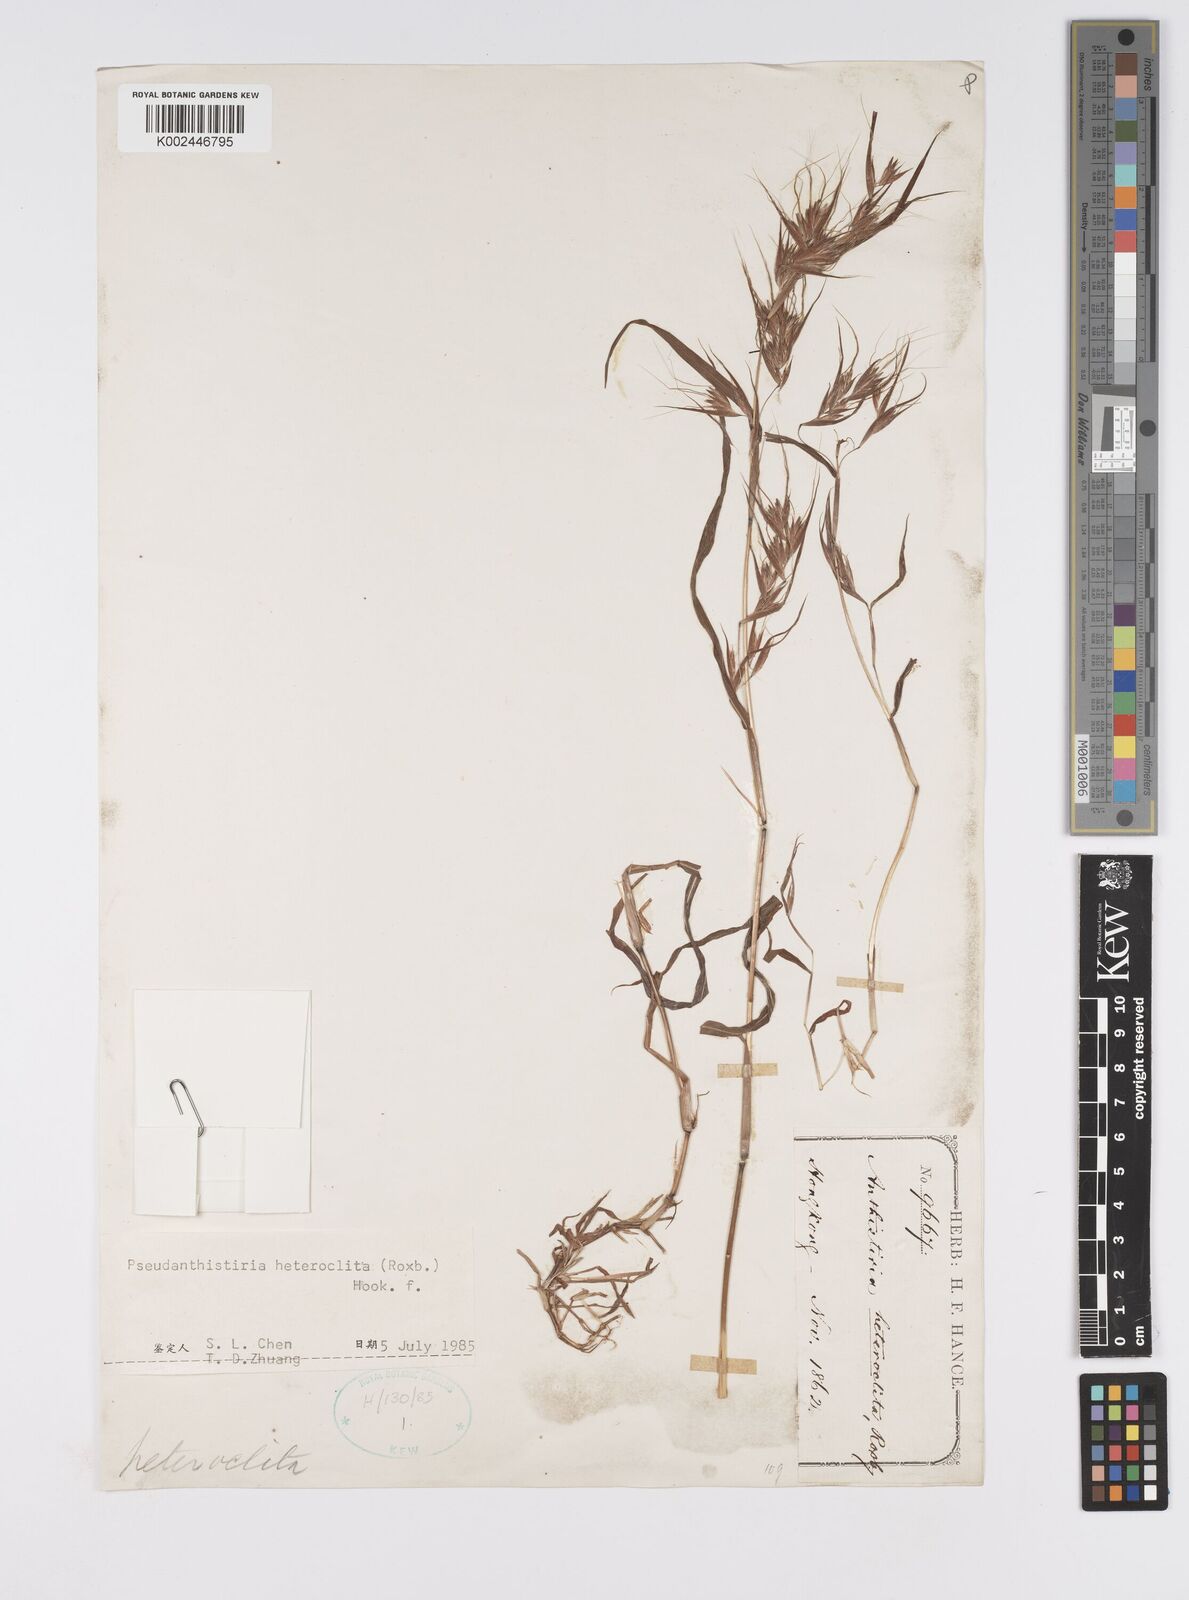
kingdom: Plantae
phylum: Tracheophyta
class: Liliopsida
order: Poales
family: Poaceae
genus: Pseudanthistiria
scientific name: Pseudanthistiria heteroclita
